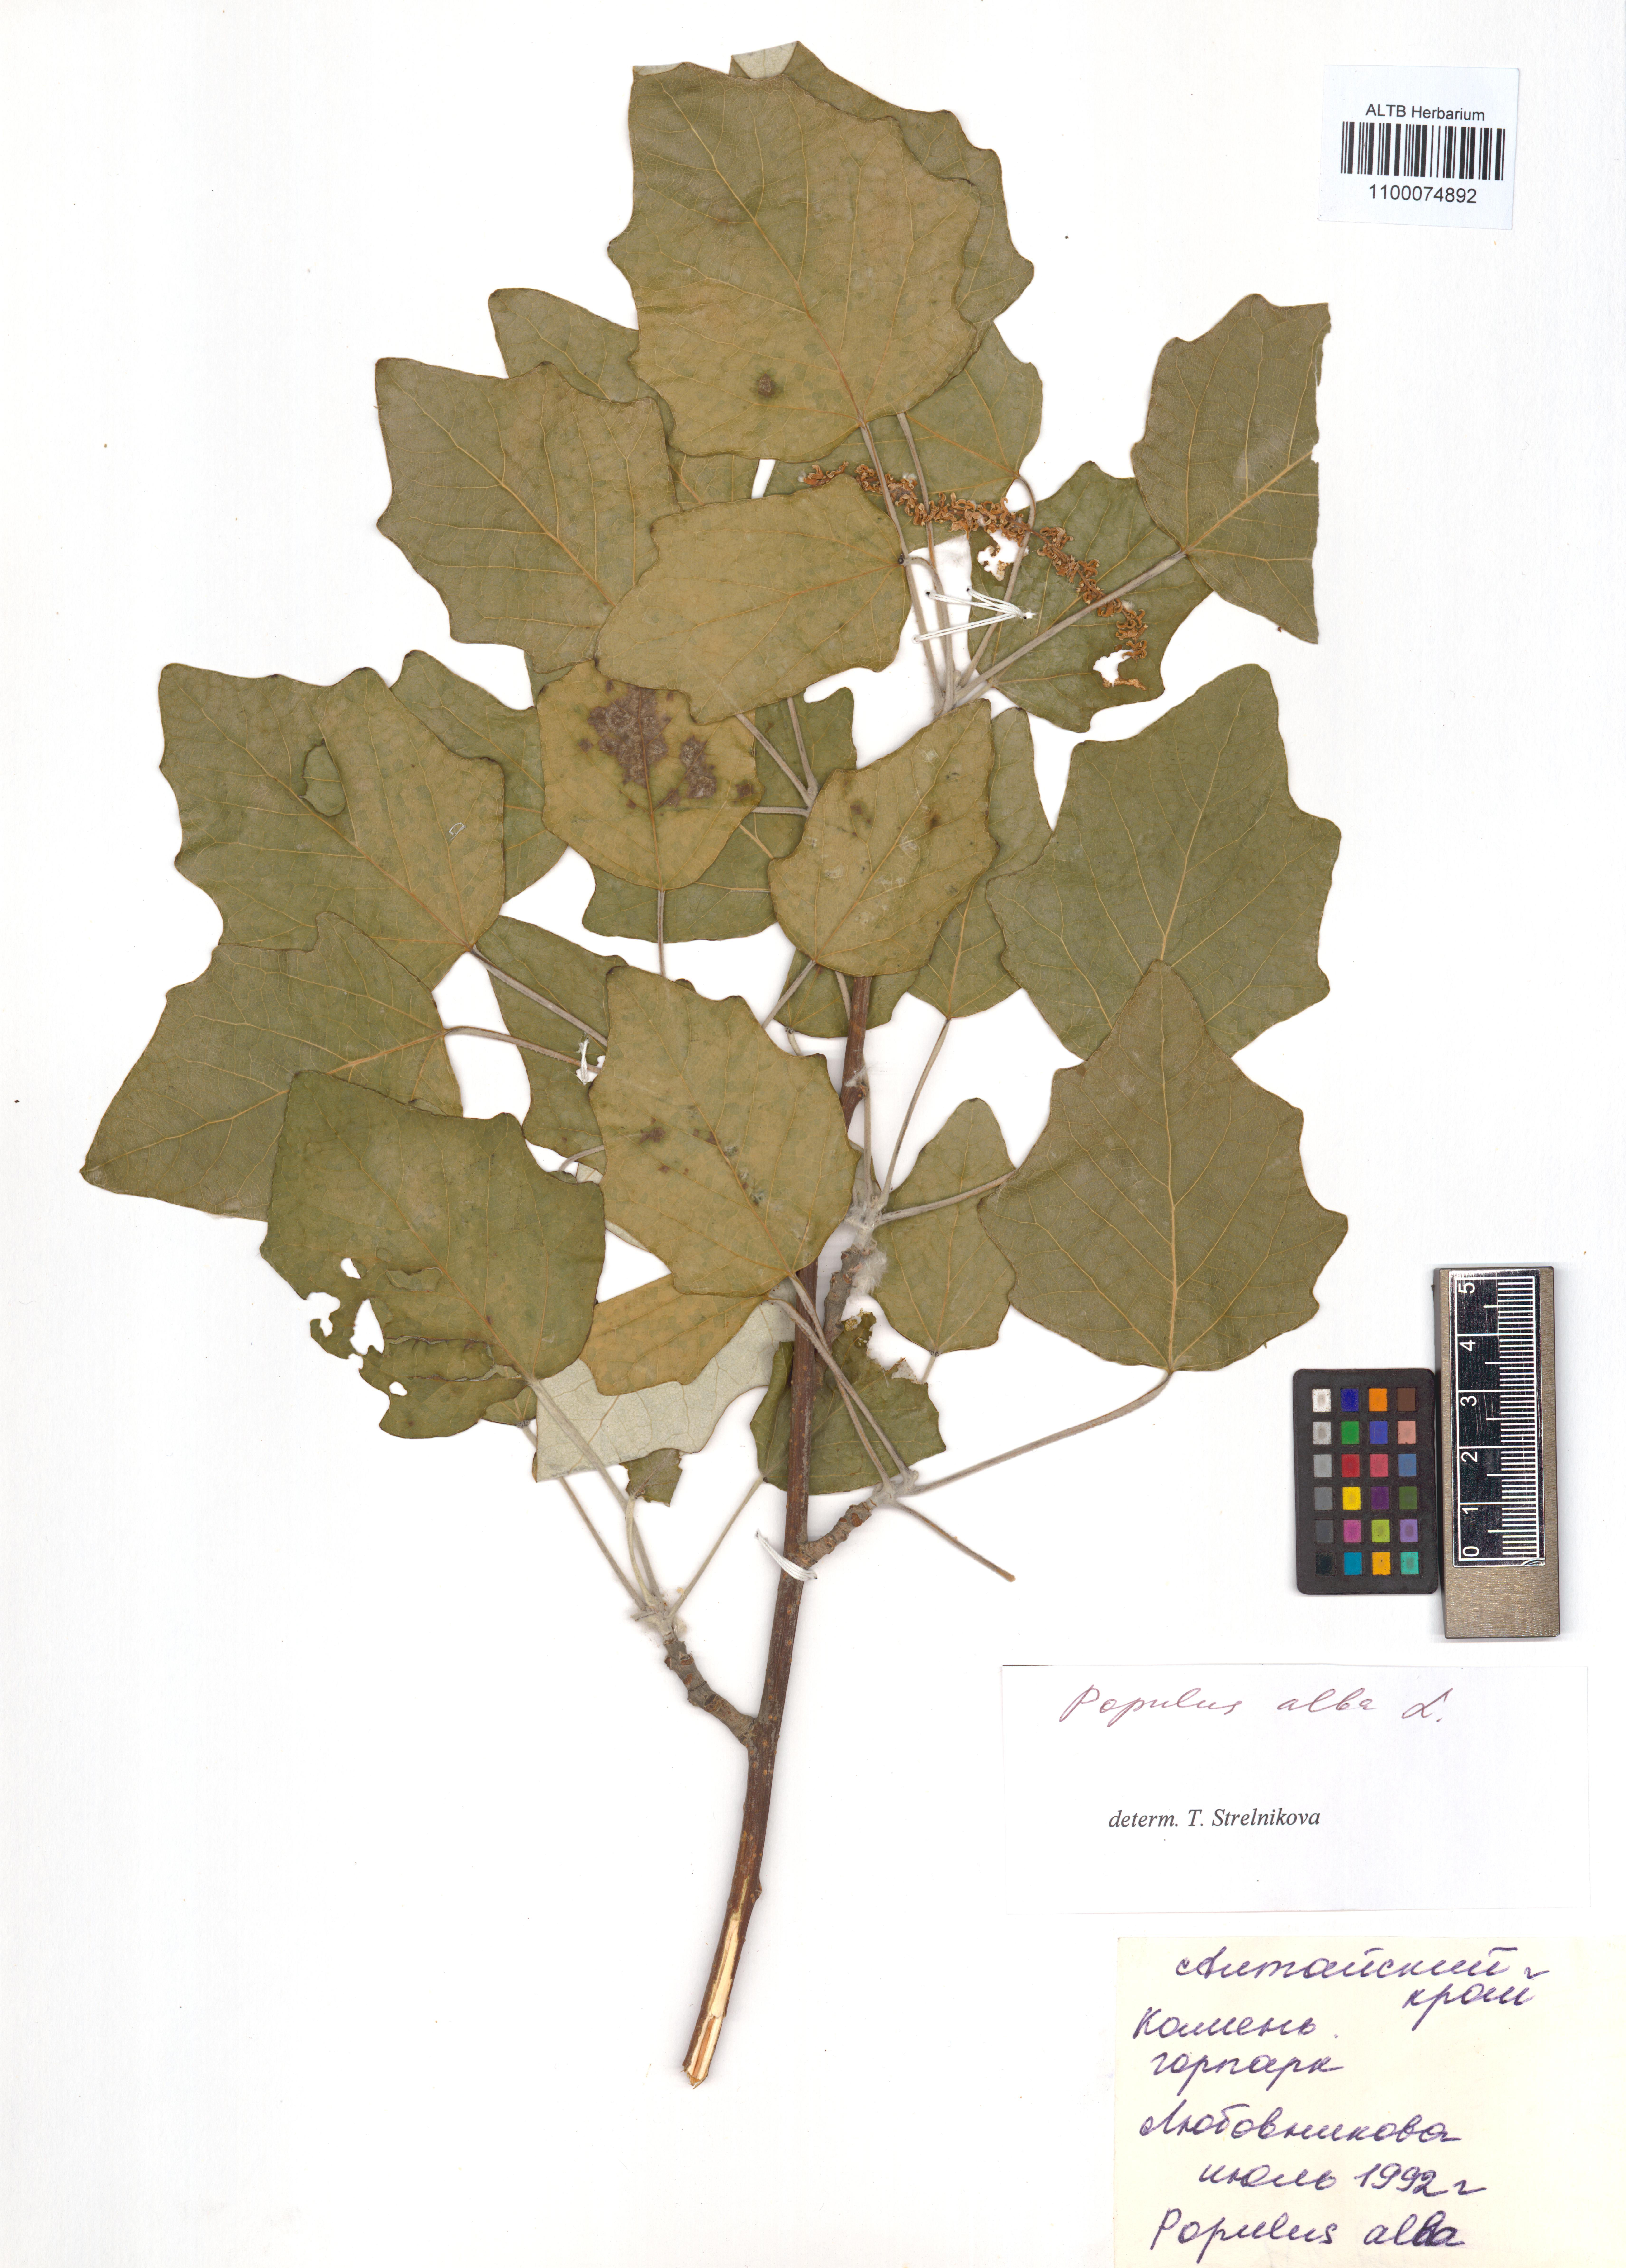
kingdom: Plantae
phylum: Tracheophyta
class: Magnoliopsida
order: Malpighiales
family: Salicaceae
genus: Populus
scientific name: Populus alba
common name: White poplar
